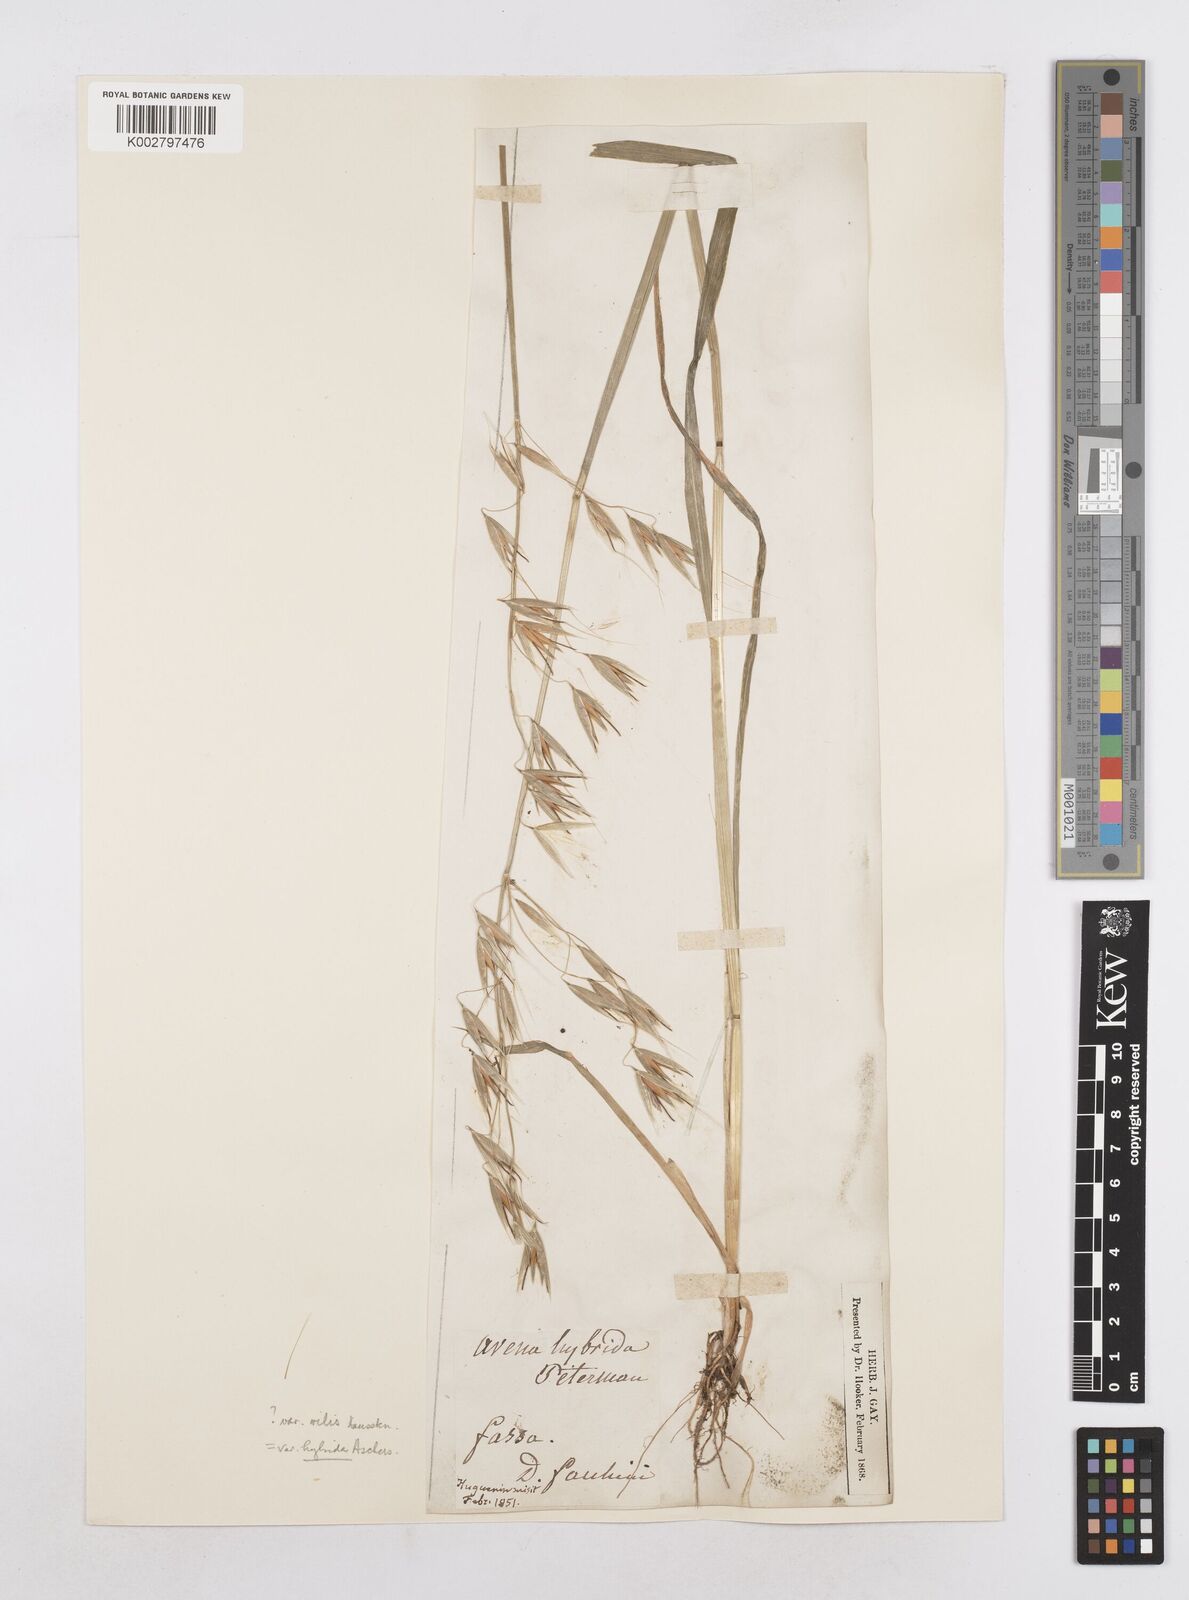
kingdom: Plantae
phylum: Tracheophyta
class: Liliopsida
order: Poales
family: Poaceae
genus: Avena
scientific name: Avena fatua
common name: Wild oat
